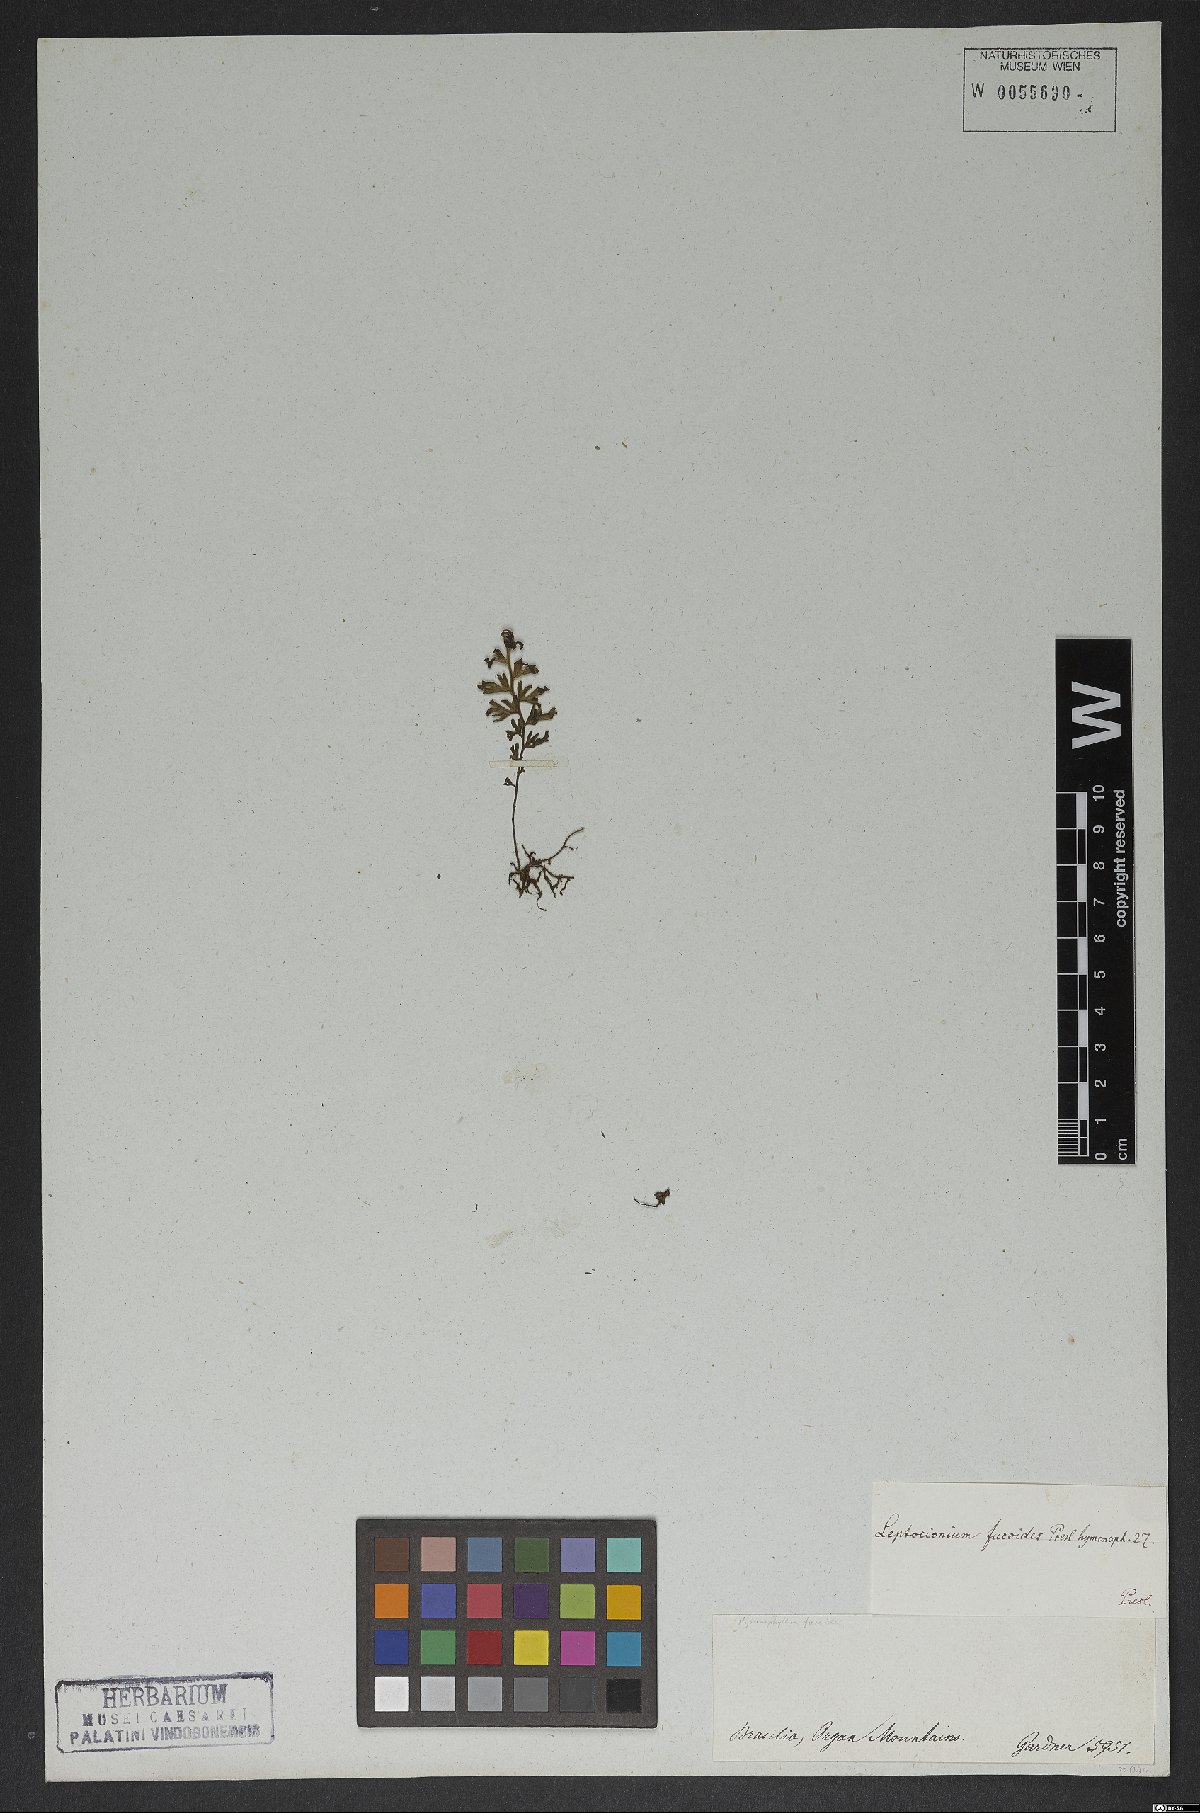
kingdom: Plantae
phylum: Tracheophyta
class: Polypodiopsida
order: Hymenophyllales
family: Hymenophyllaceae
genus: Hymenophyllum
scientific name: Hymenophyllum asplenioides
